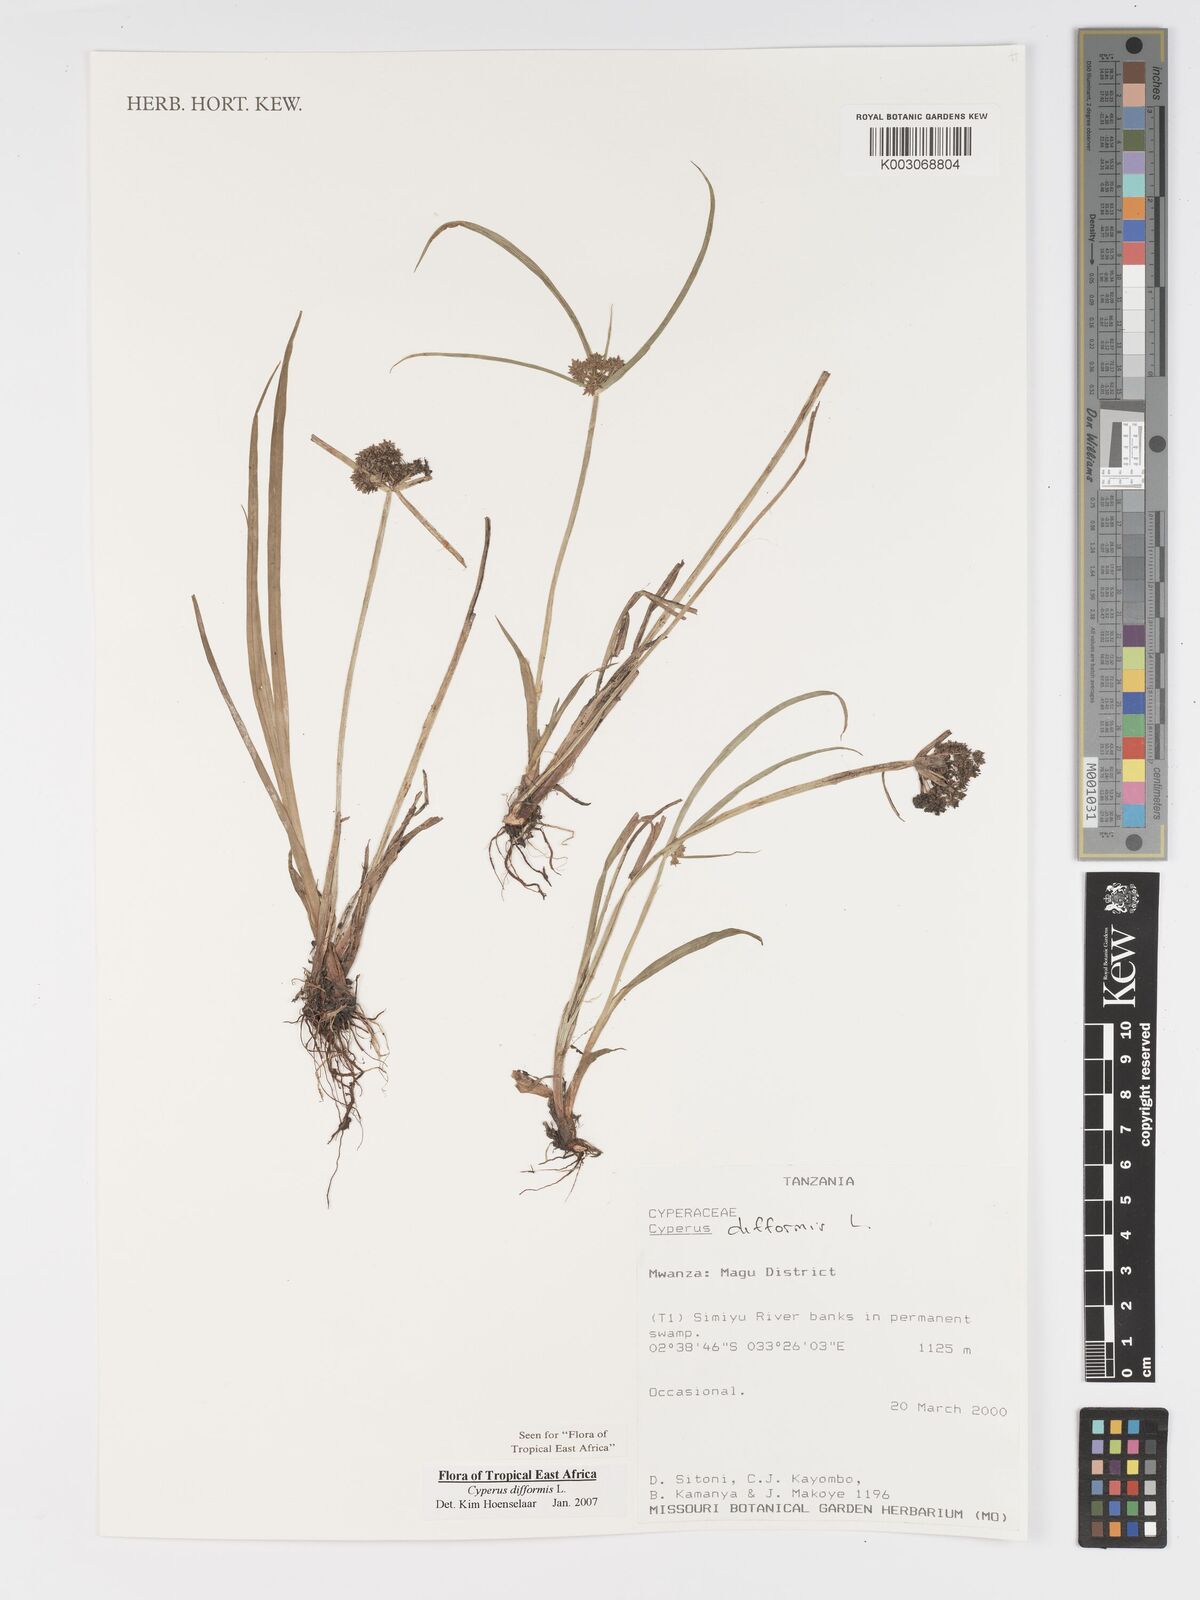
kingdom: Plantae
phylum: Tracheophyta
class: Liliopsida
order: Poales
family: Cyperaceae
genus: Cyperus
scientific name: Cyperus difformis
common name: Variable flatsedge
